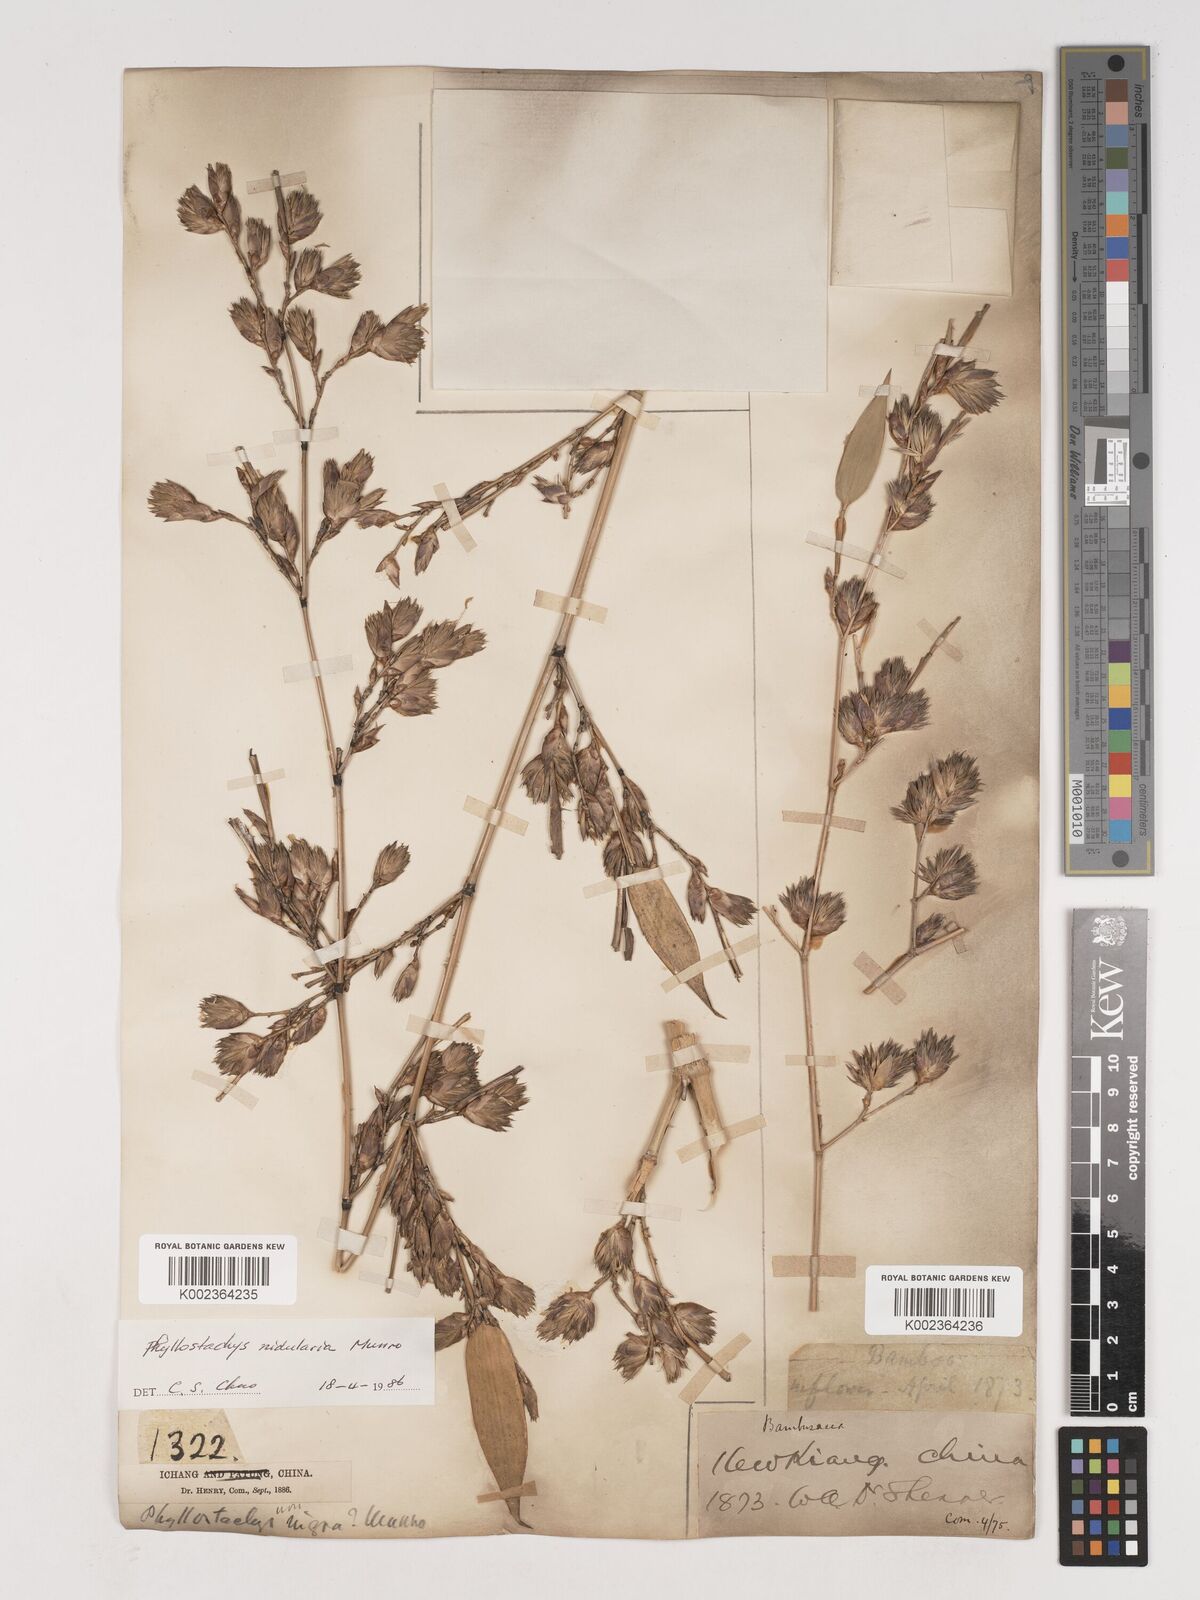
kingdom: Plantae
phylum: Tracheophyta
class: Liliopsida
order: Poales
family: Poaceae
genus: Phyllostachys
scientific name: Phyllostachys nidularia
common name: Broom bamboo
